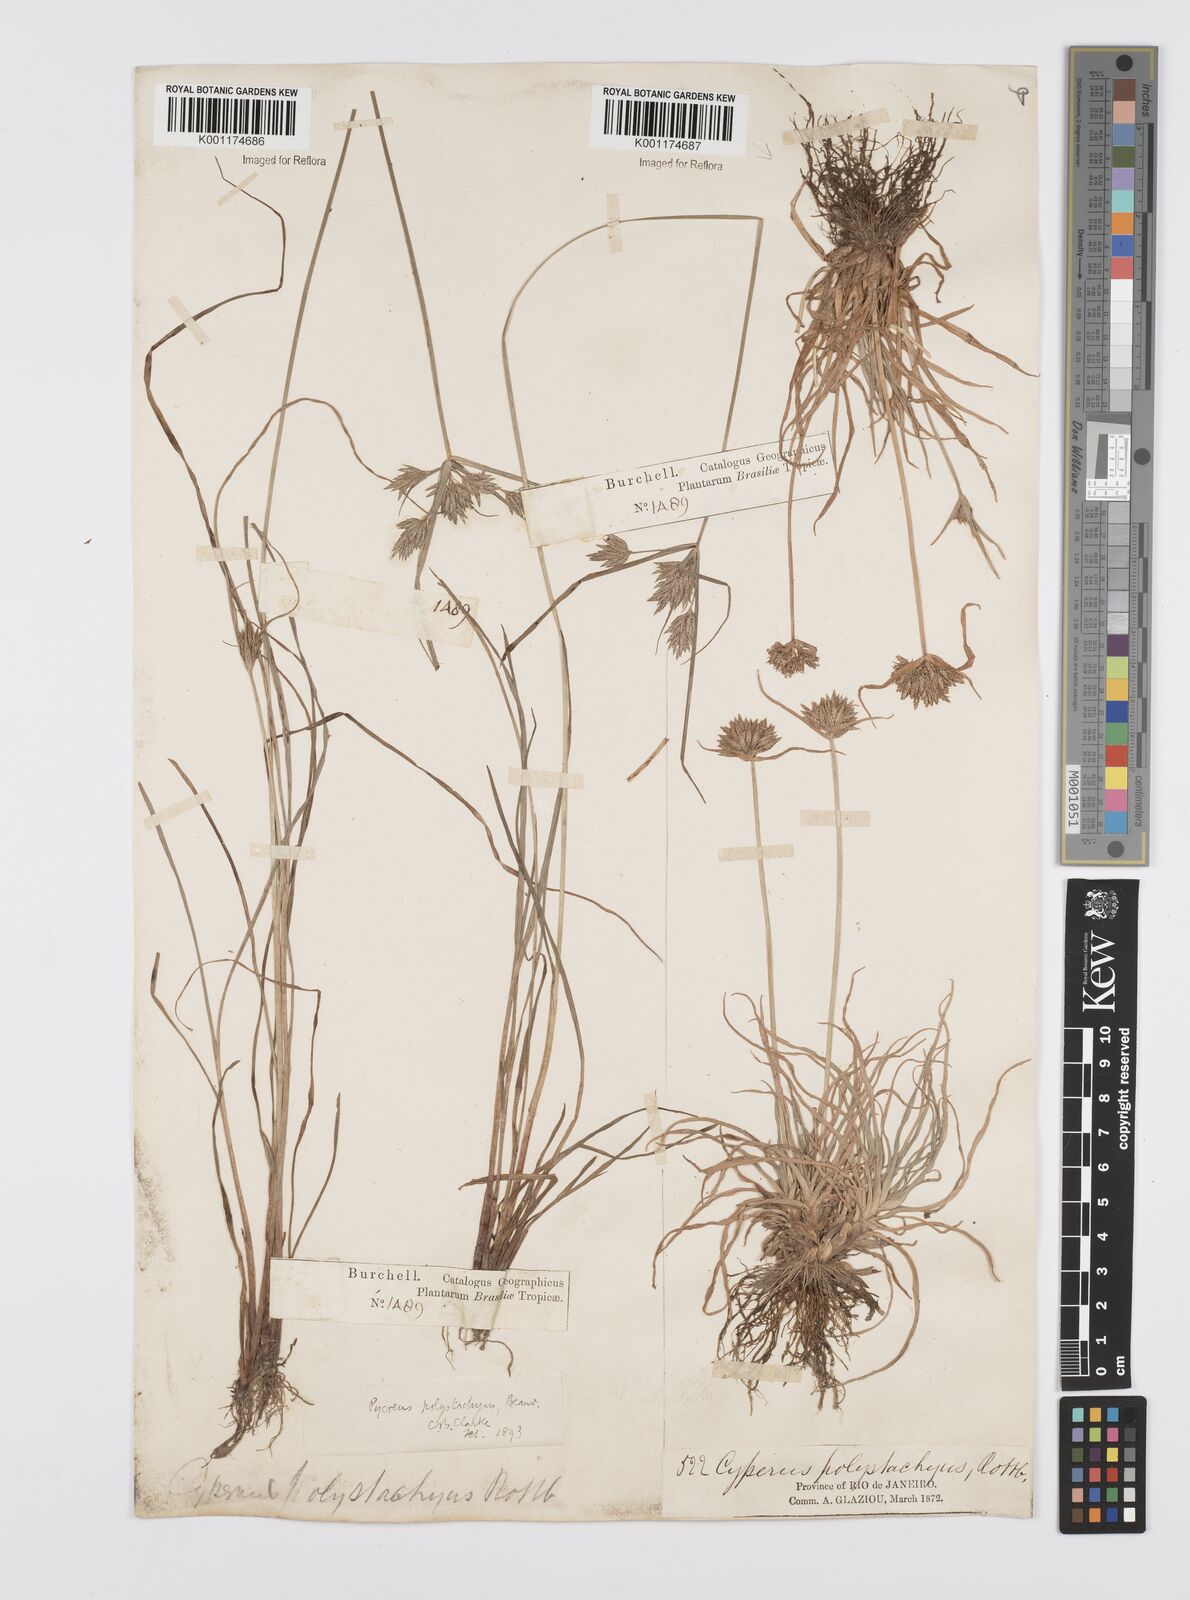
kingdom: Plantae
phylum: Tracheophyta
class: Liliopsida
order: Poales
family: Cyperaceae
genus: Cyperus
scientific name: Cyperus polystachyos
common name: Bunchy flat sedge
